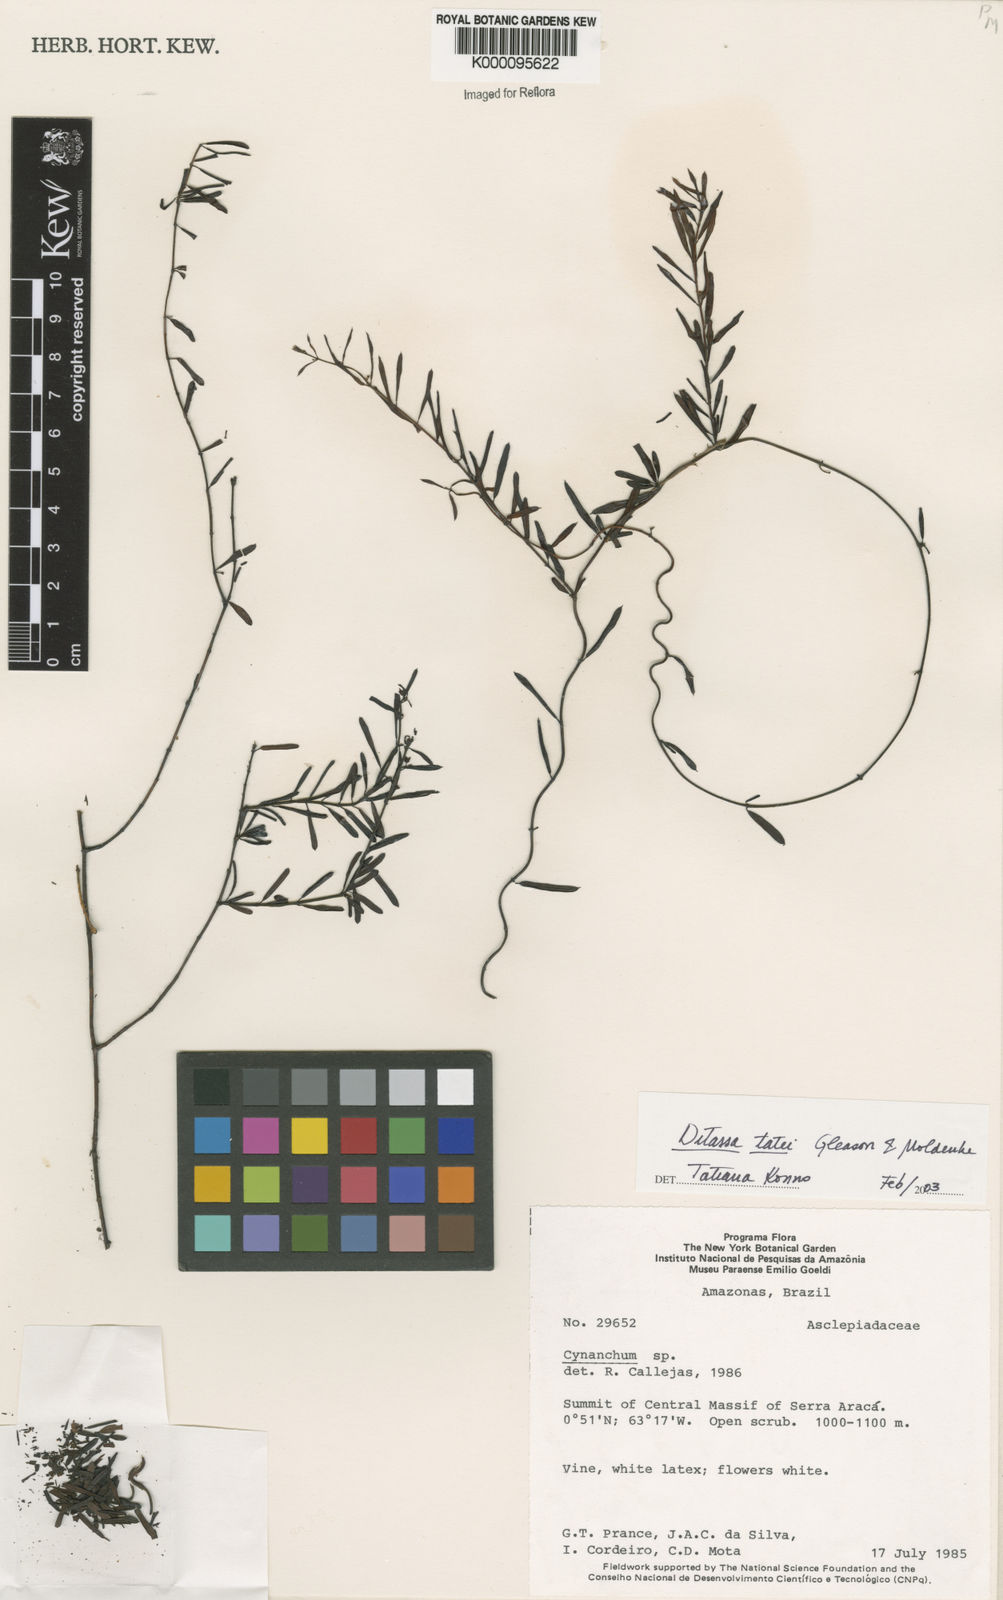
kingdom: Plantae
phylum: Tracheophyta
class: Magnoliopsida
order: Gentianales
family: Apocynaceae
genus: Ditassa
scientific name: Ditassa nigrescens
